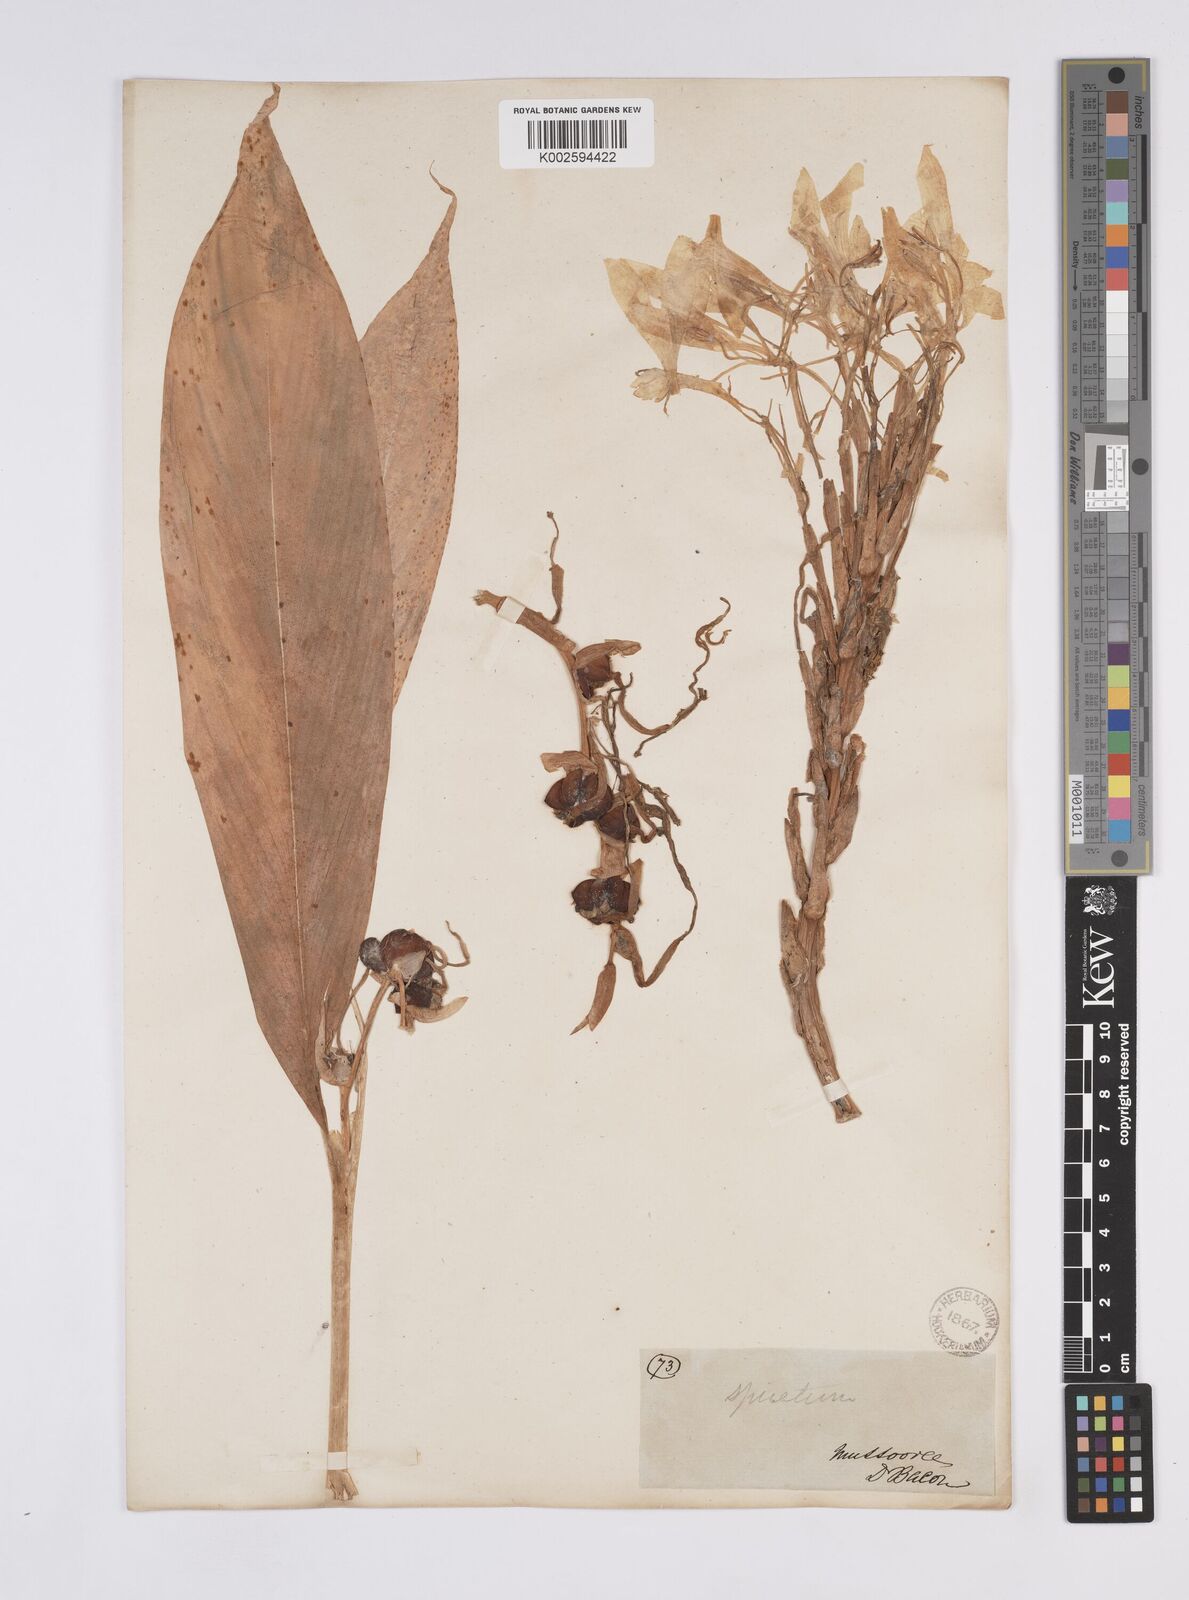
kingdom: Plantae
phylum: Tracheophyta
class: Liliopsida
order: Zingiberales
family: Zingiberaceae
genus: Hedychium
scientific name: Hedychium spicatum
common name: Spiked ginger-lily
